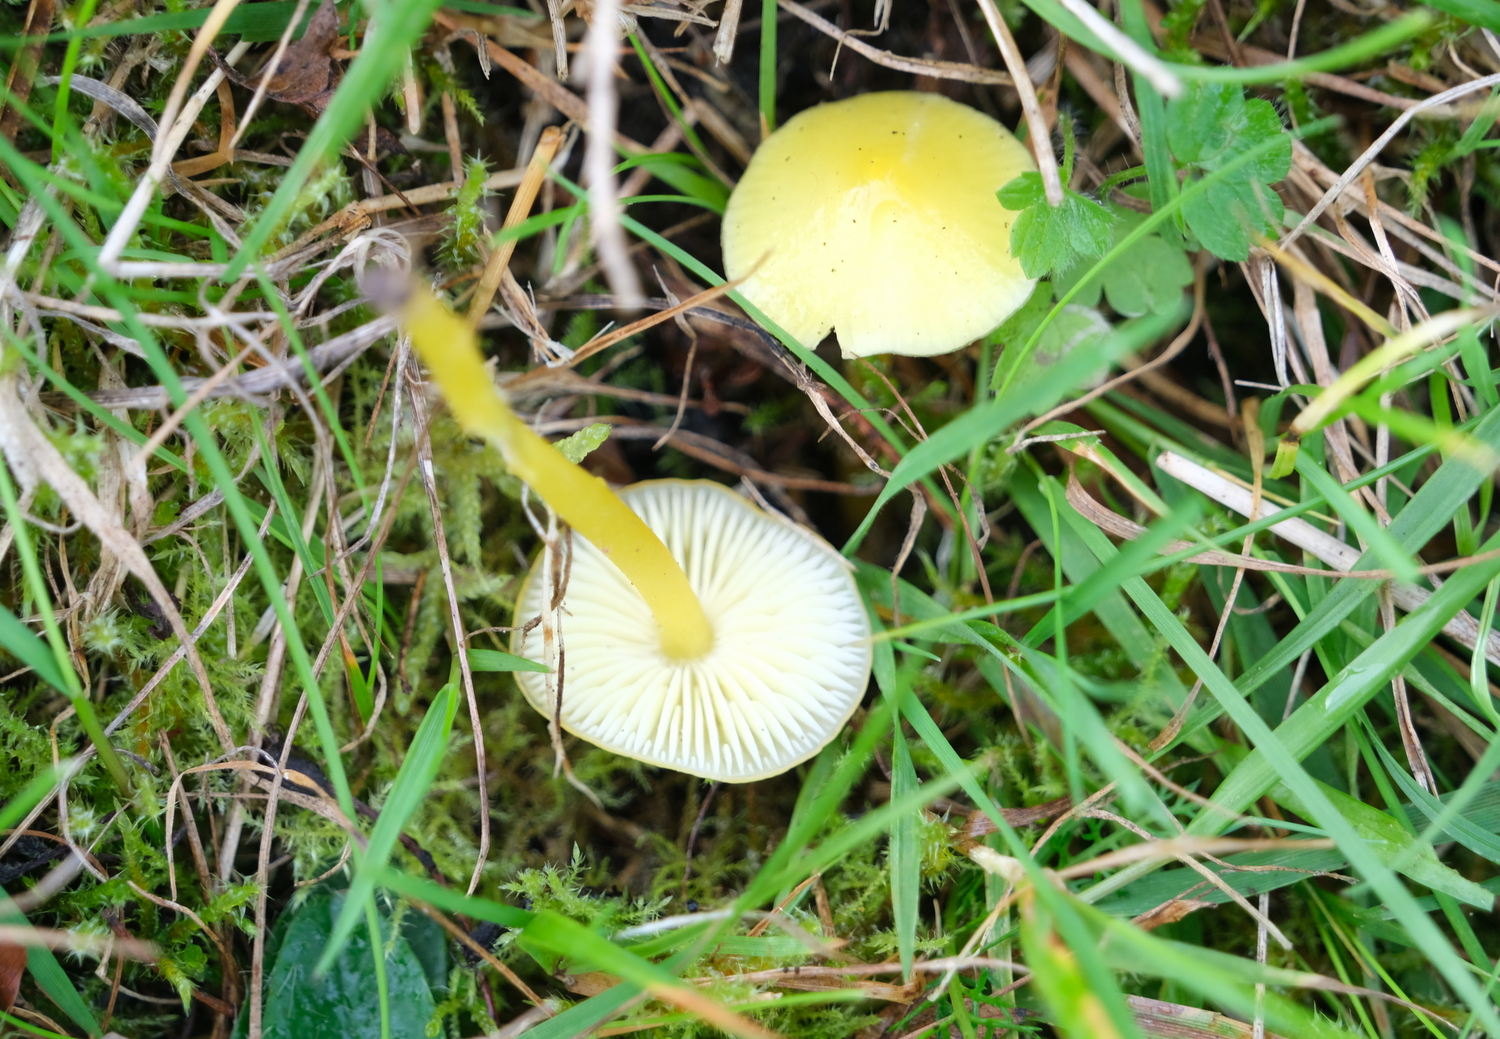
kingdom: Fungi
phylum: Basidiomycota
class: Agaricomycetes
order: Agaricales
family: Hygrophoraceae
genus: Hygrocybe
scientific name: Hygrocybe ceracea
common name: voksgul vokshat
